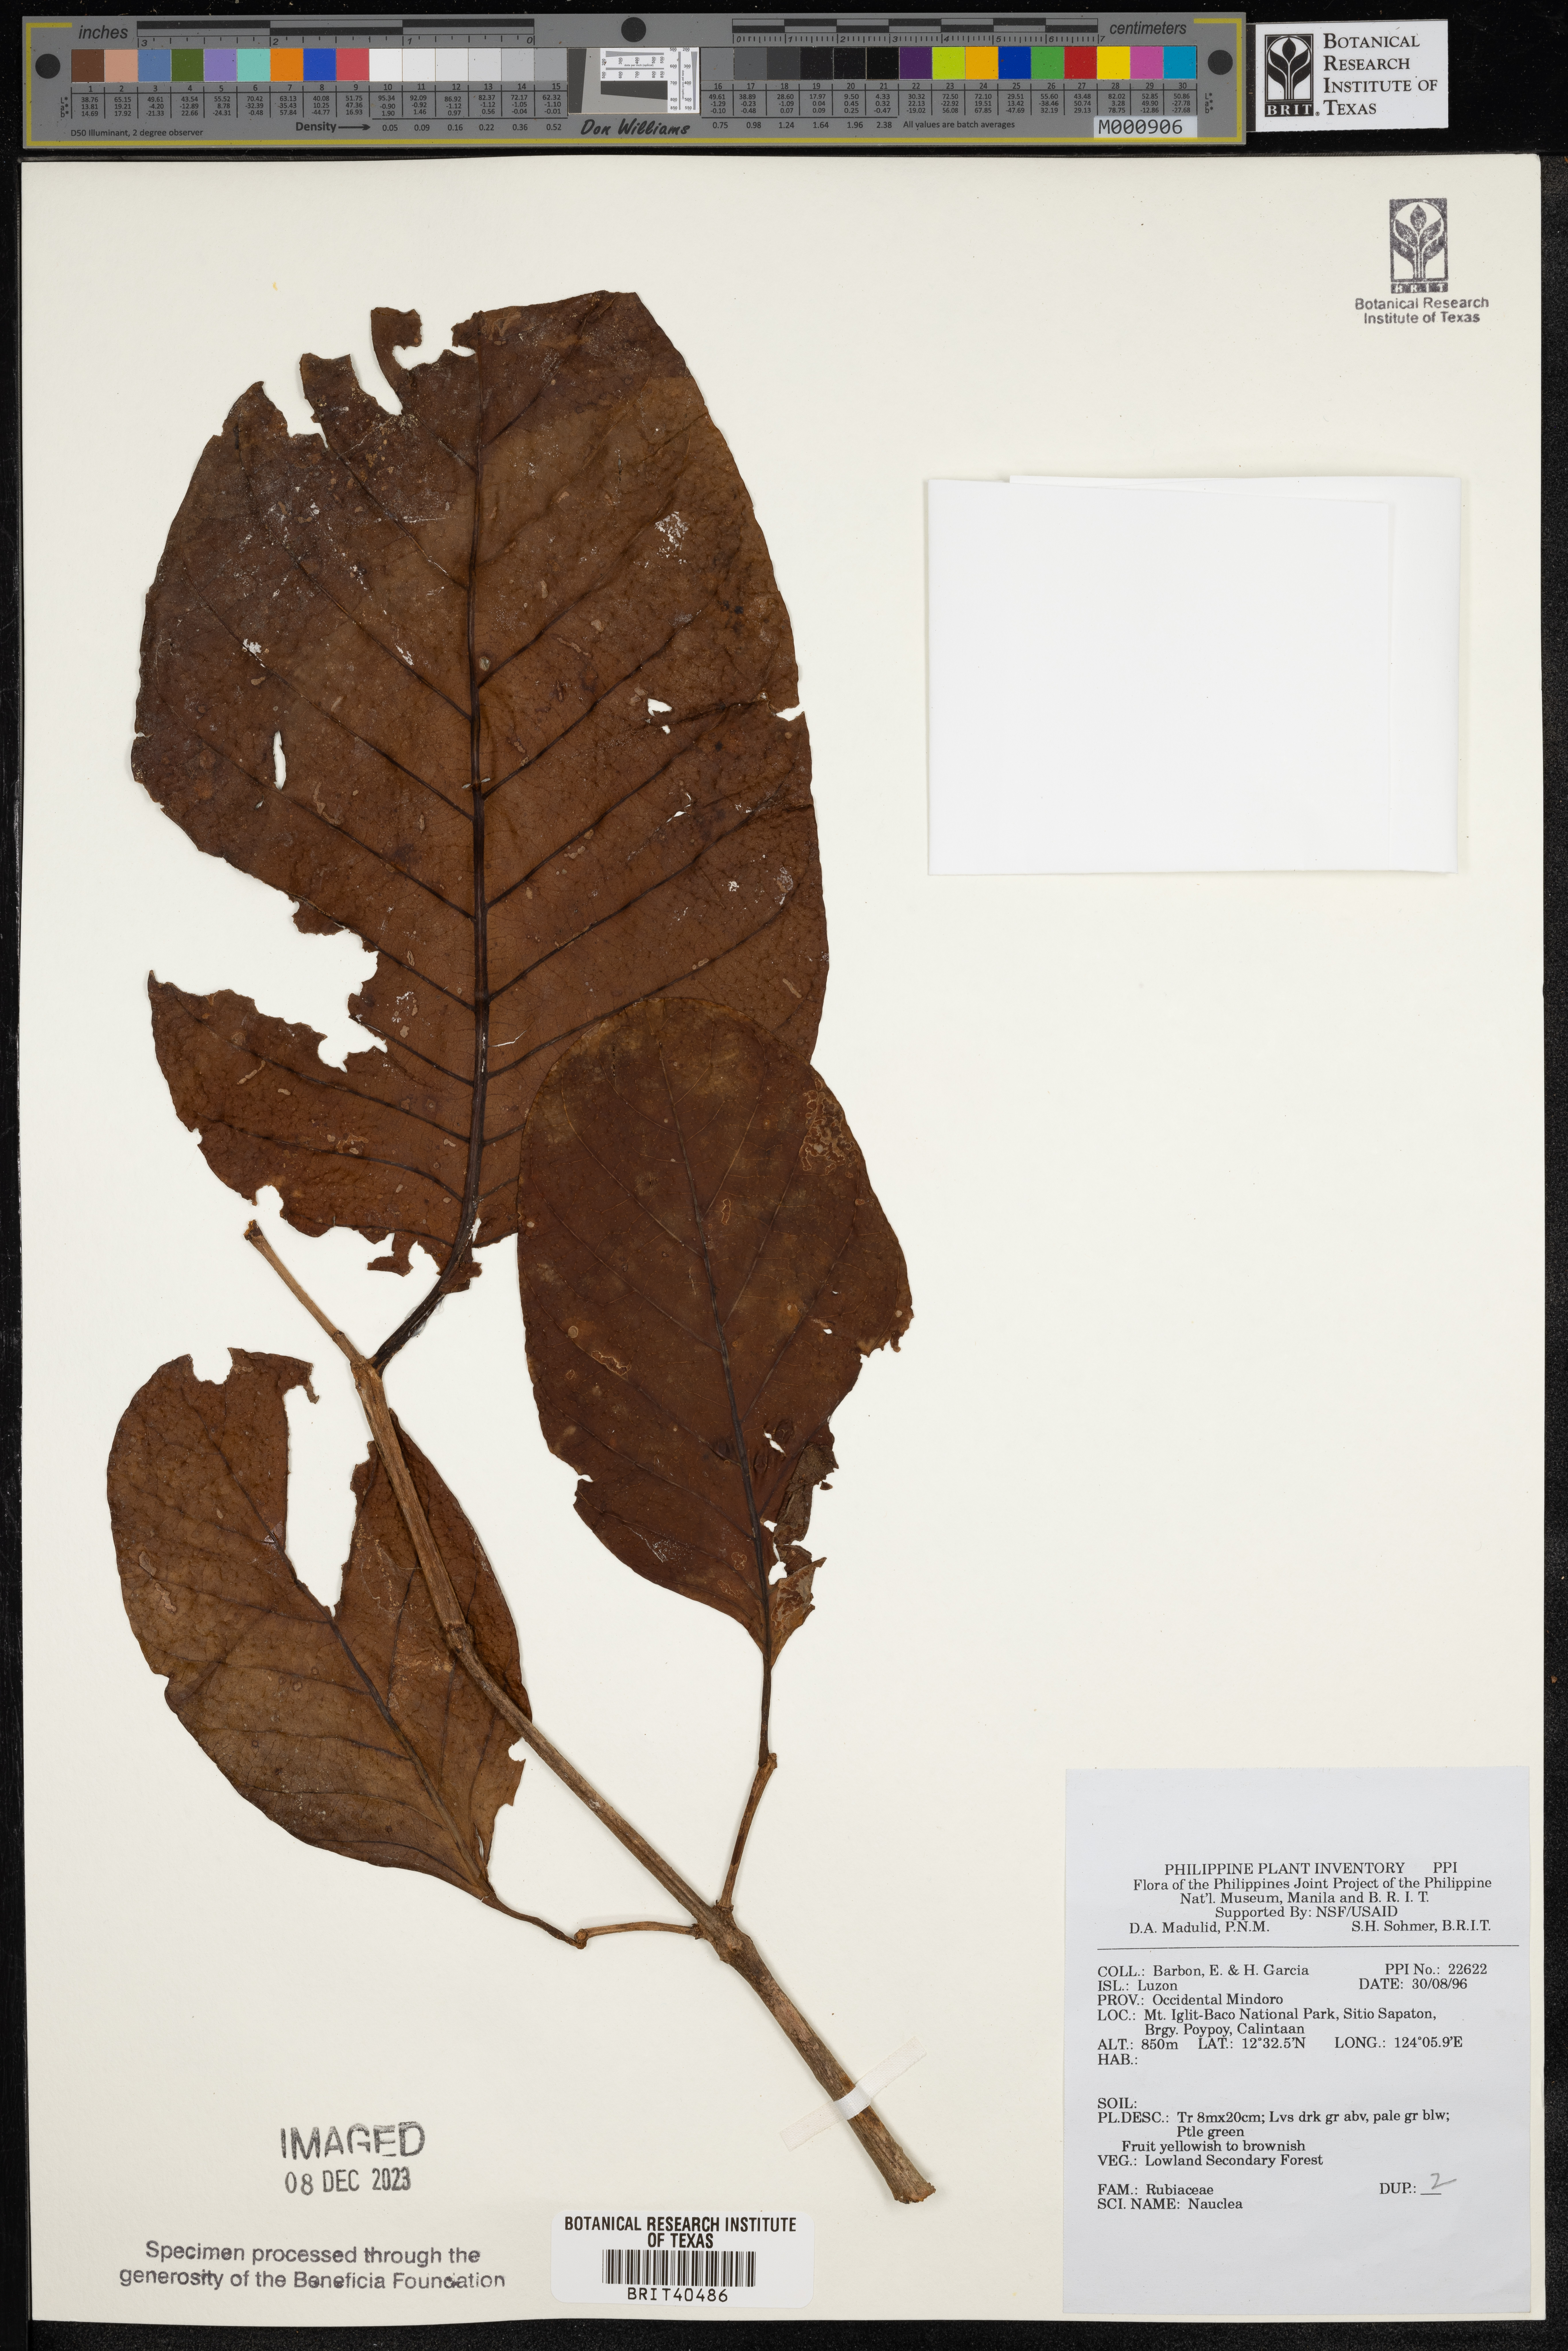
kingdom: Plantae
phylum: Tracheophyta
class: Magnoliopsida
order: Gentianales
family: Rubiaceae
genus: Nauclea
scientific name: Nauclea
